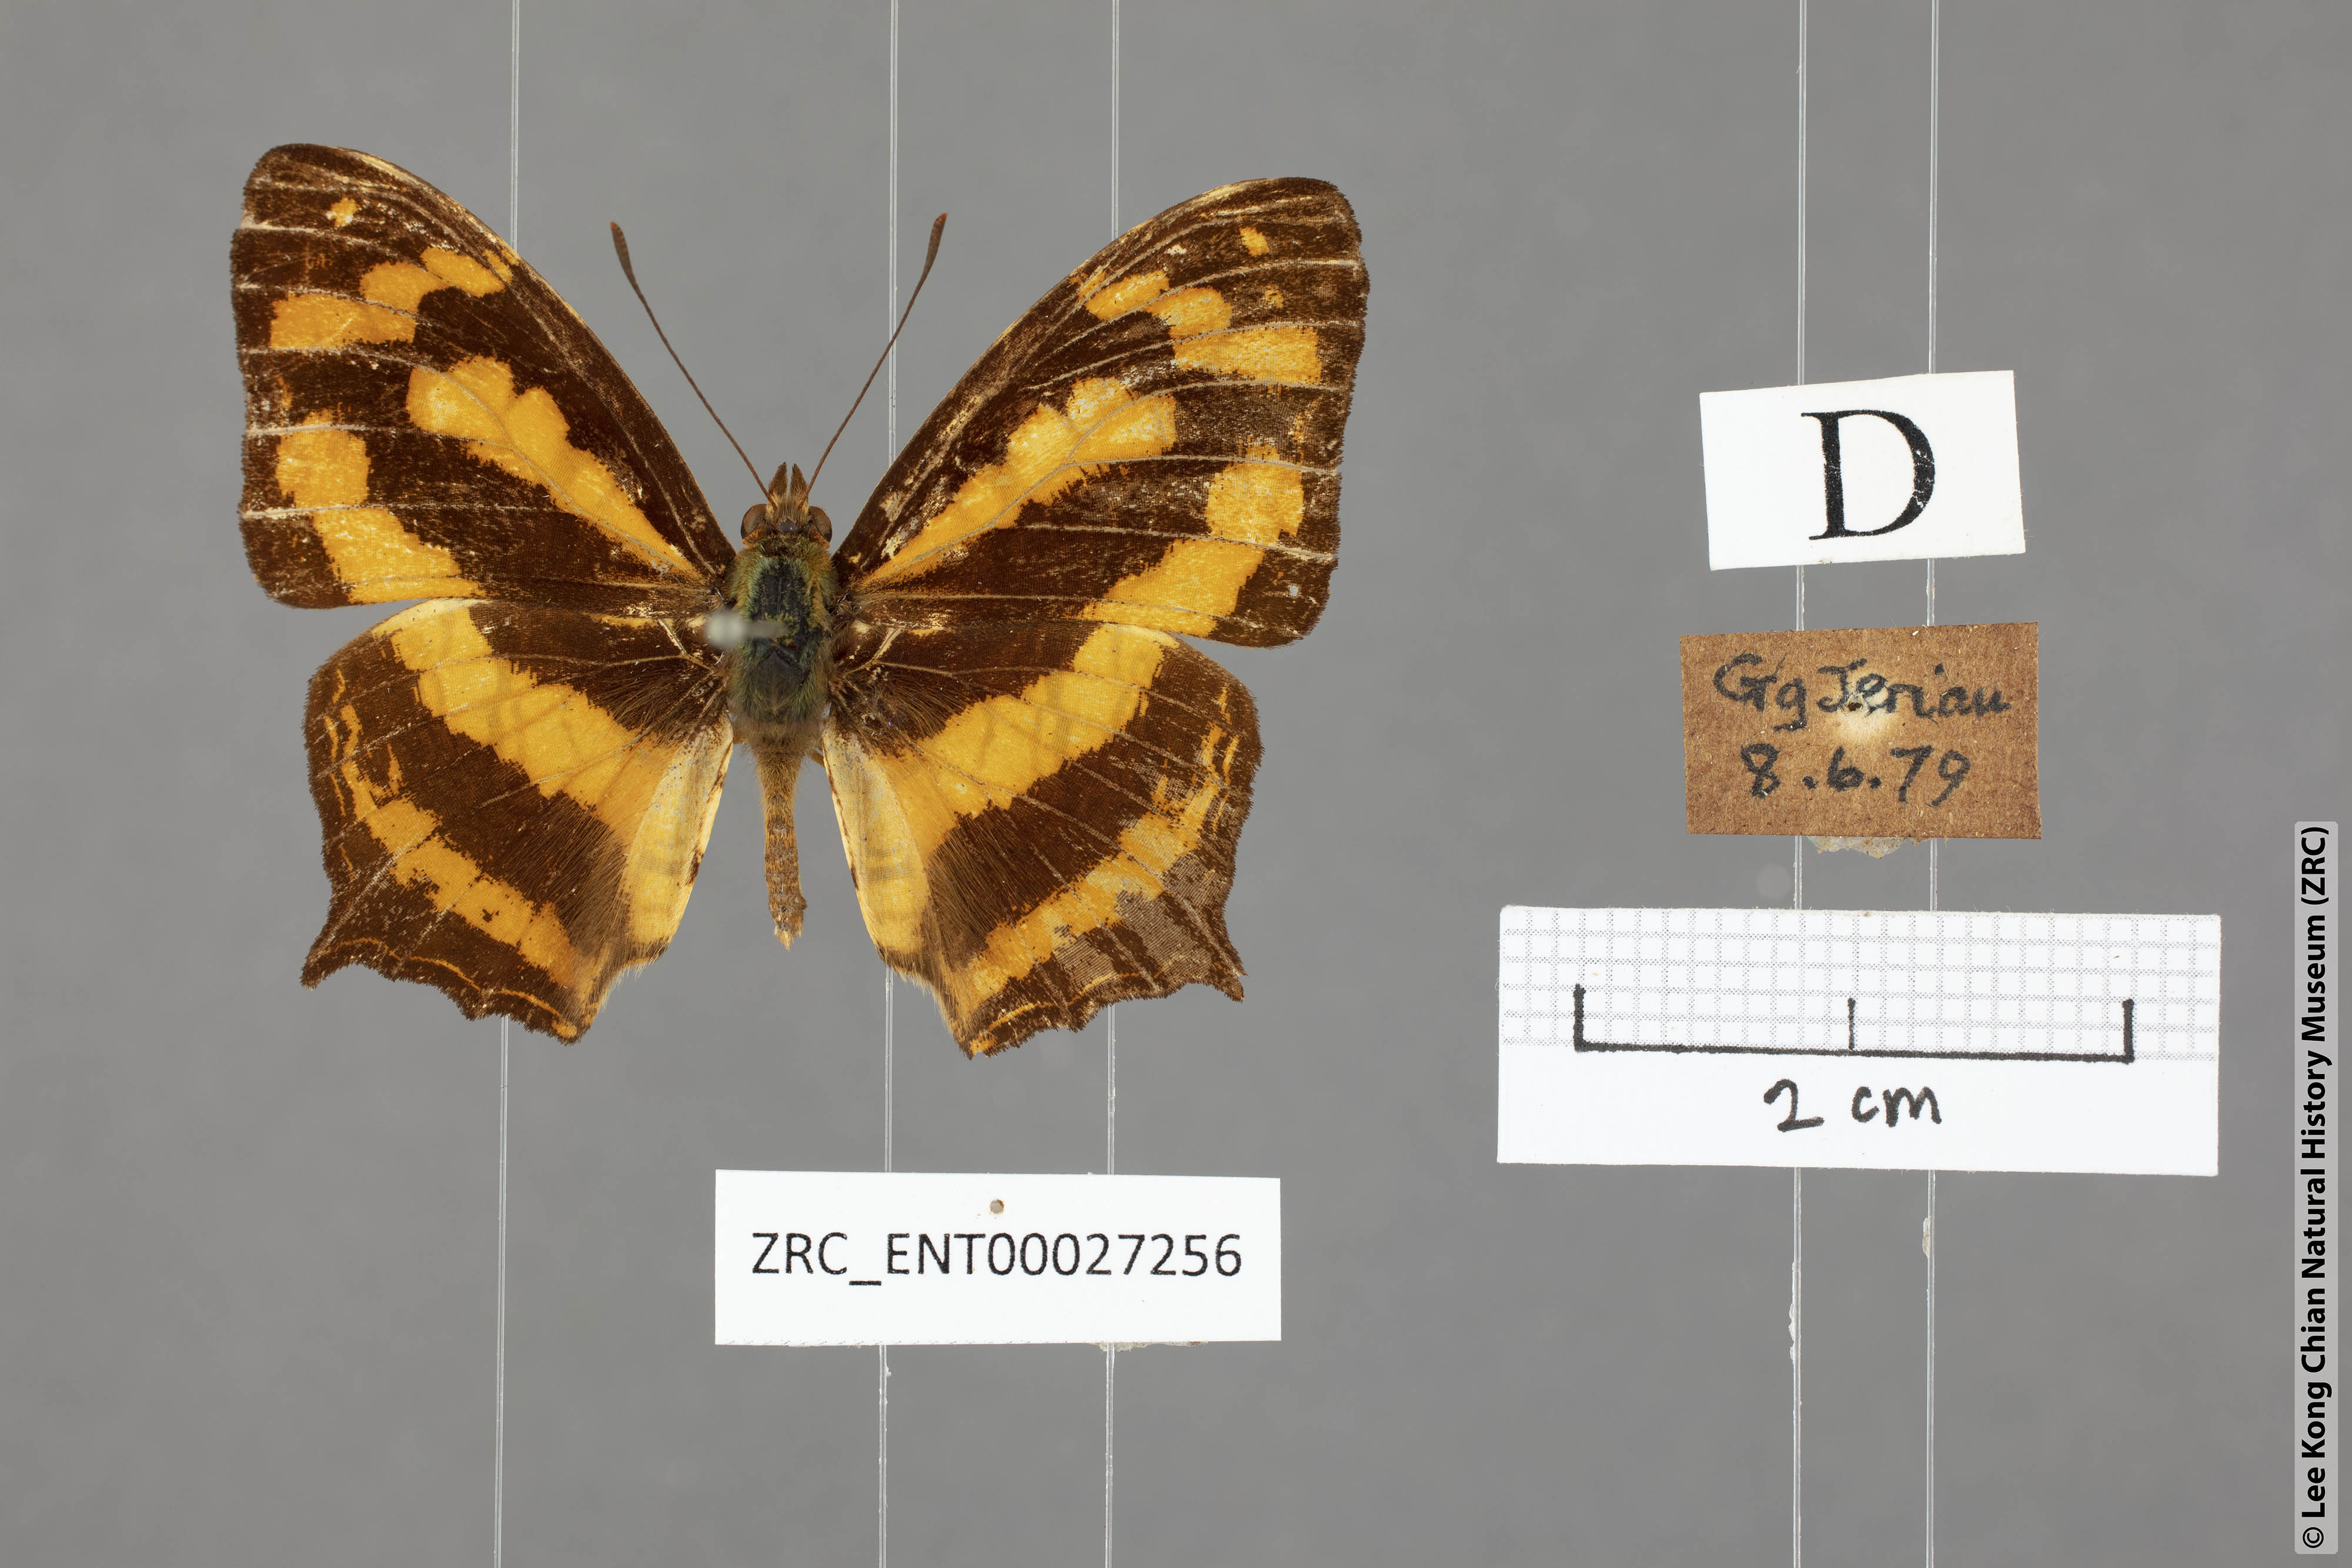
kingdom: Animalia
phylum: Arthropoda
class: Insecta
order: Lepidoptera
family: Nymphalidae
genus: Symbrenthia
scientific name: Symbrenthia hypatia
